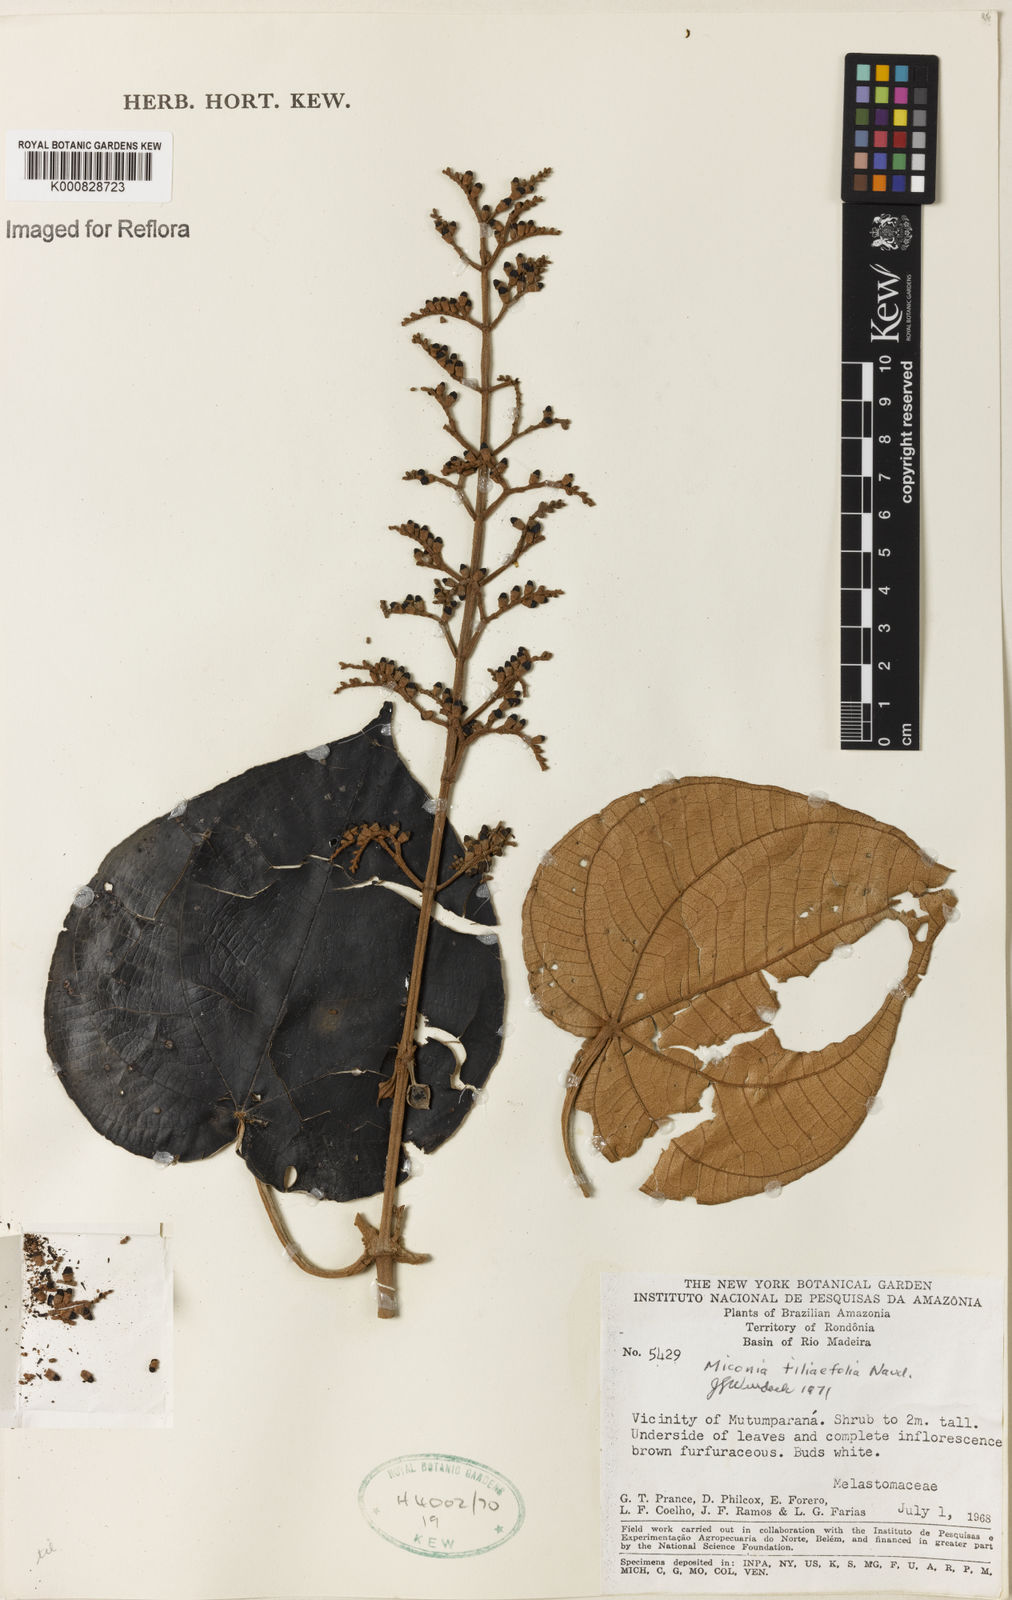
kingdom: Plantae
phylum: Tracheophyta
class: Magnoliopsida
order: Myrtales
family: Melastomataceae
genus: Miconia
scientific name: Miconia
